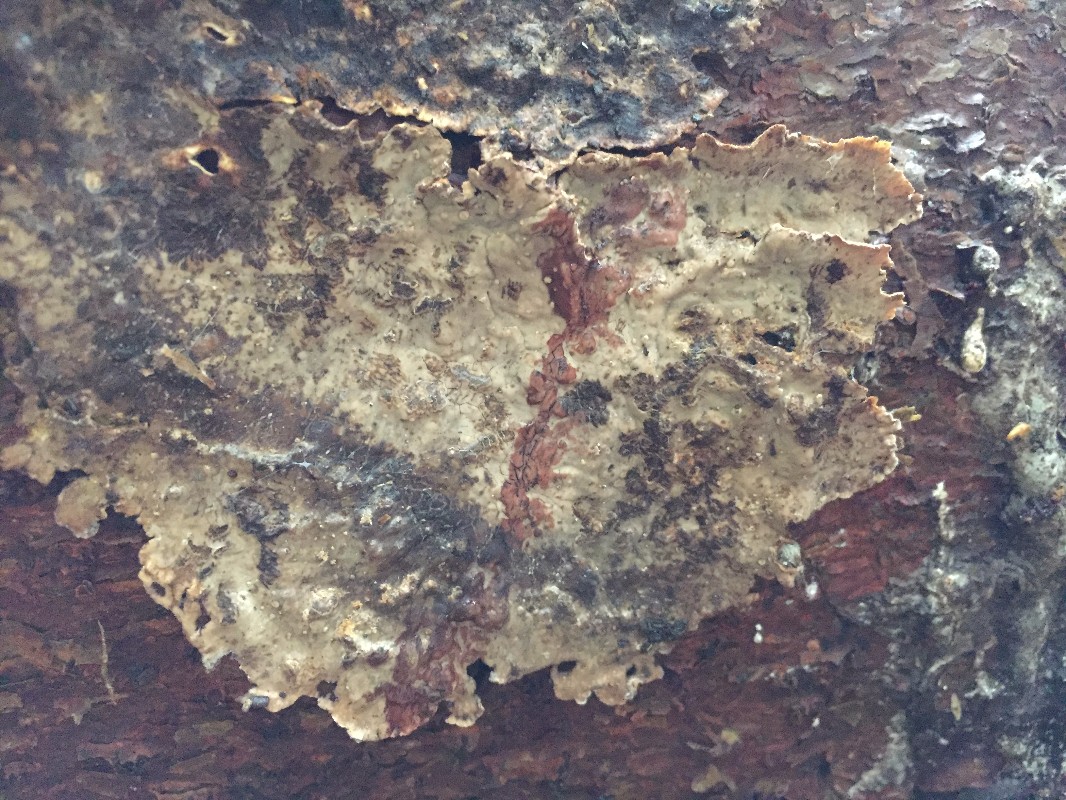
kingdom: Fungi
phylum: Basidiomycota
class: Agaricomycetes
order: Russulales
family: Stereaceae
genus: Stereum
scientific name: Stereum sanguinolentum
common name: blødende lædersvamp
